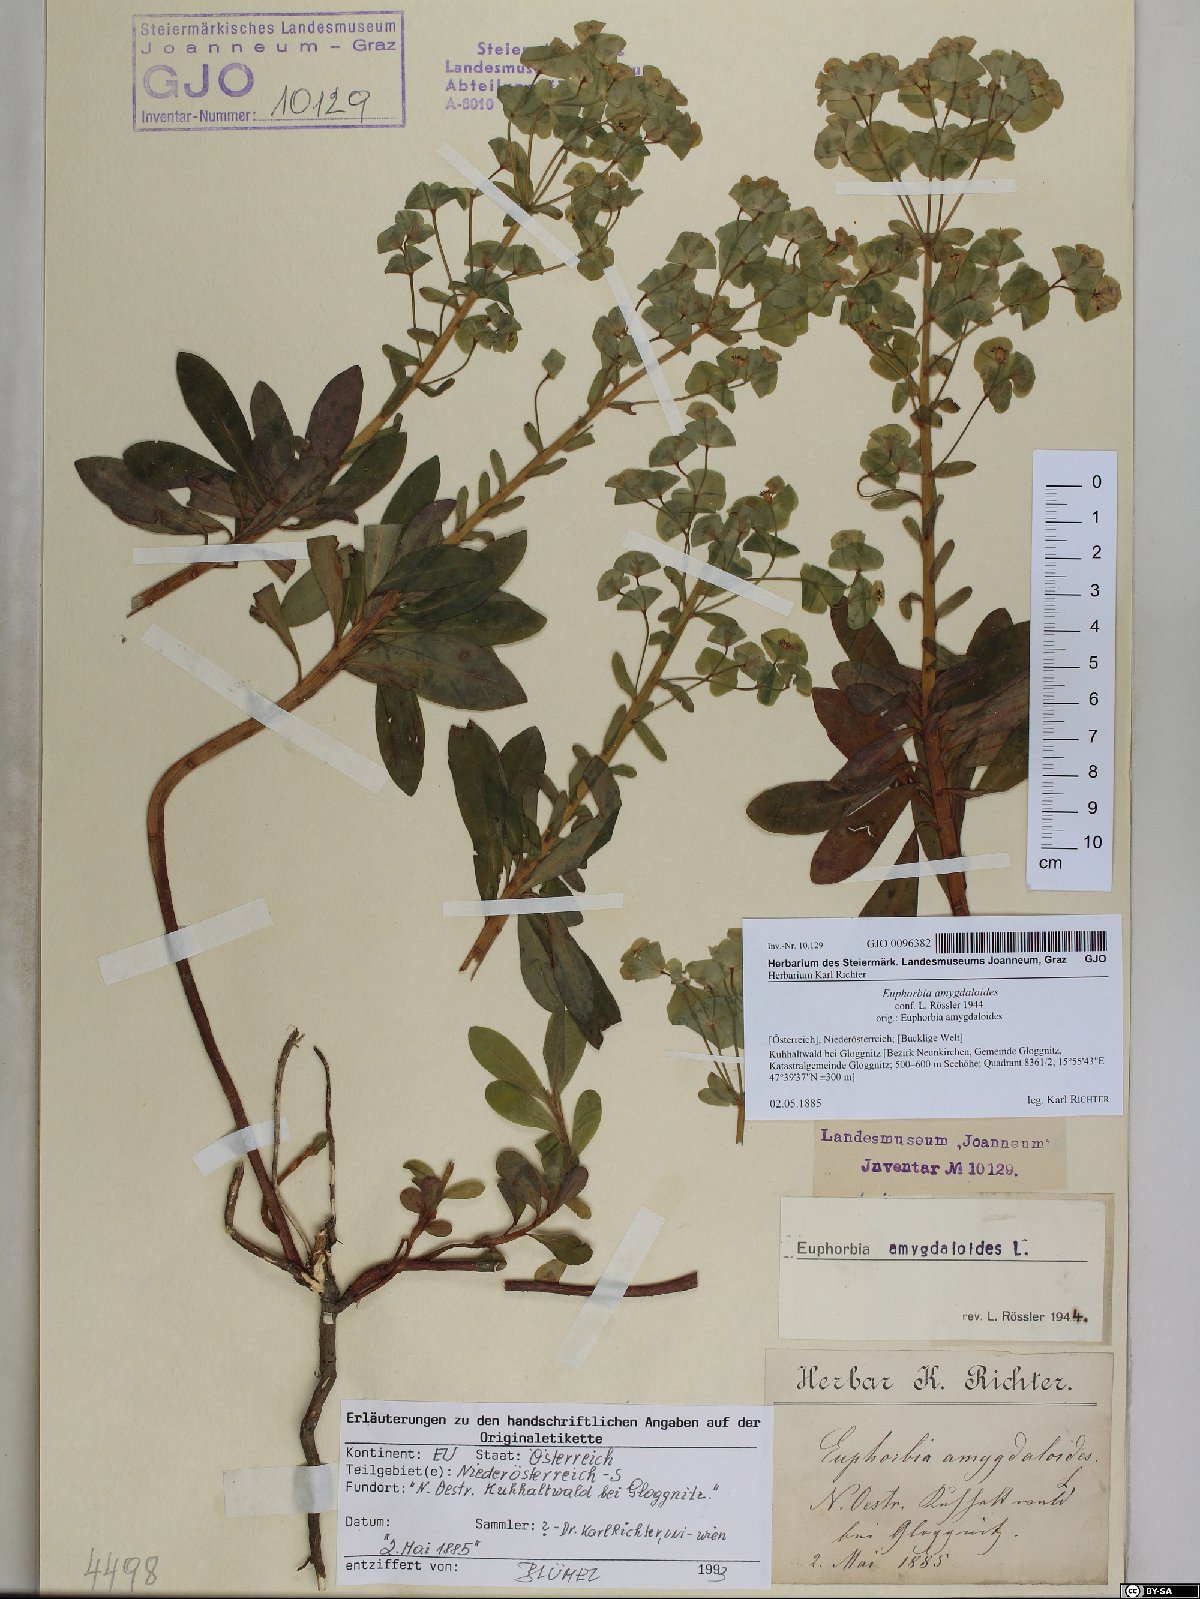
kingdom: Plantae
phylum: Tracheophyta
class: Magnoliopsida
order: Malpighiales
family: Euphorbiaceae
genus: Euphorbia
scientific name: Euphorbia amygdaloides
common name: Wood spurge
